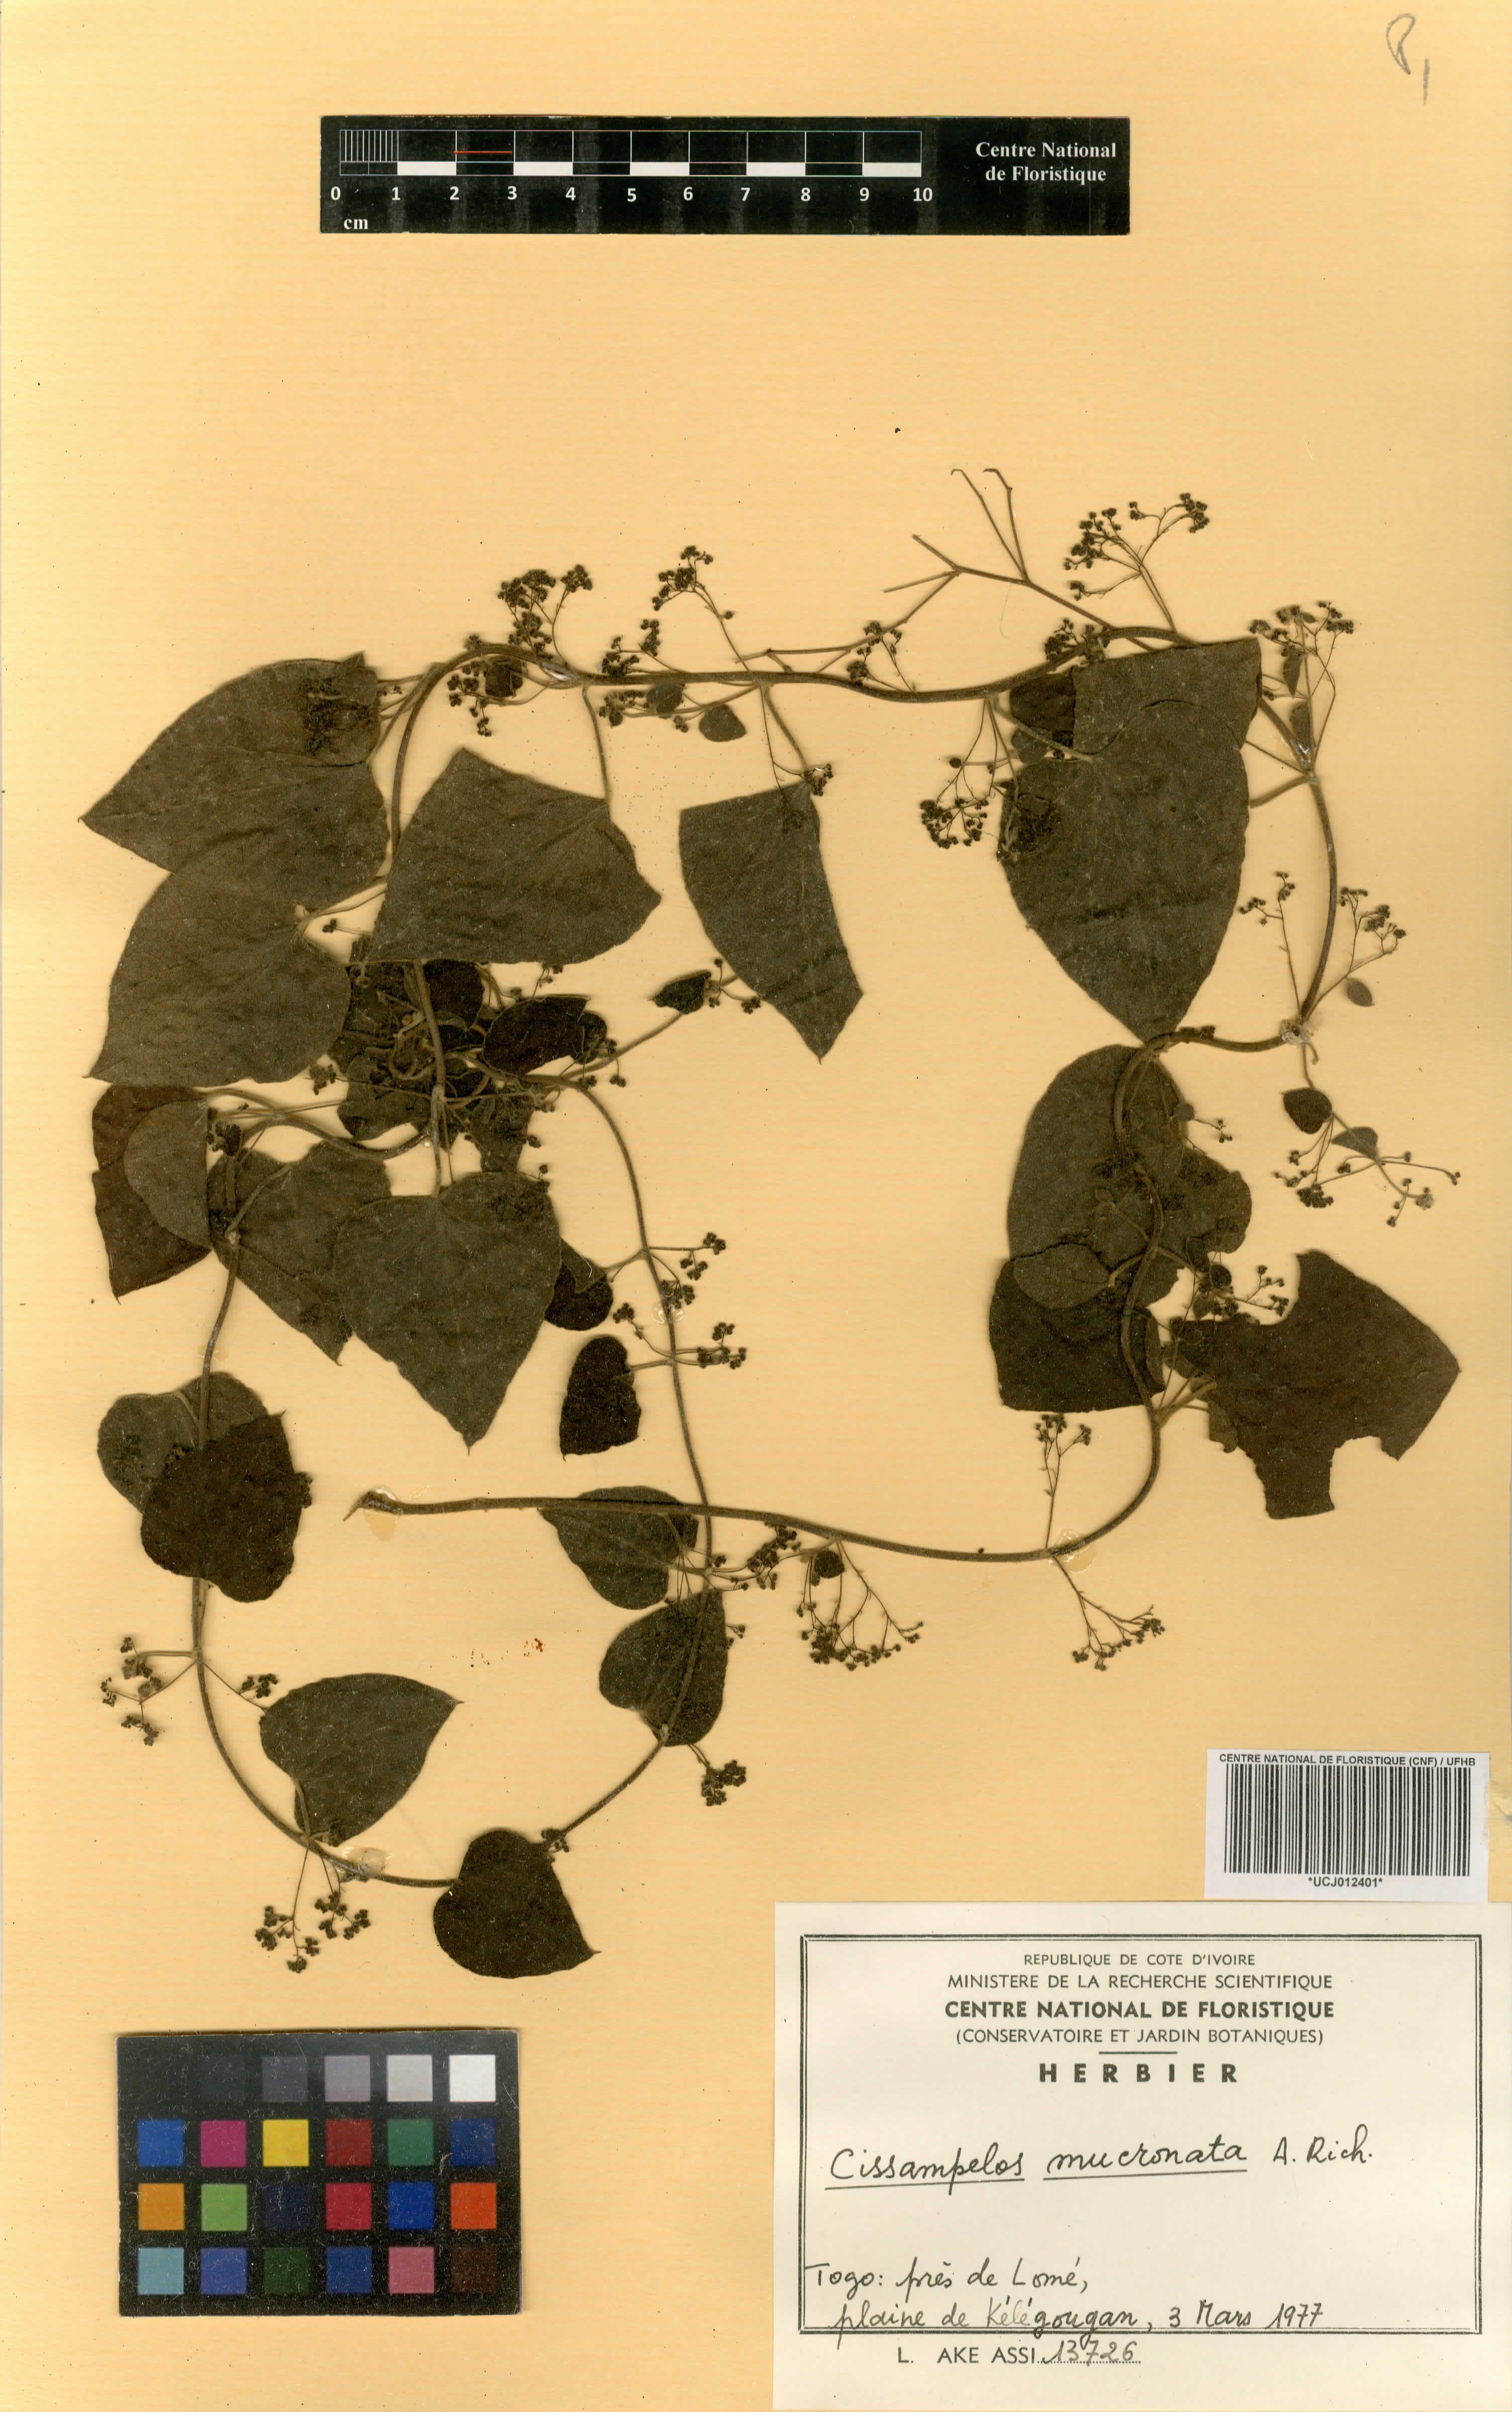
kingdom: Plantae
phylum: Tracheophyta
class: Magnoliopsida
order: Ranunculales
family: Menispermaceae
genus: Cissampelos
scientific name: Cissampelos mucronata
